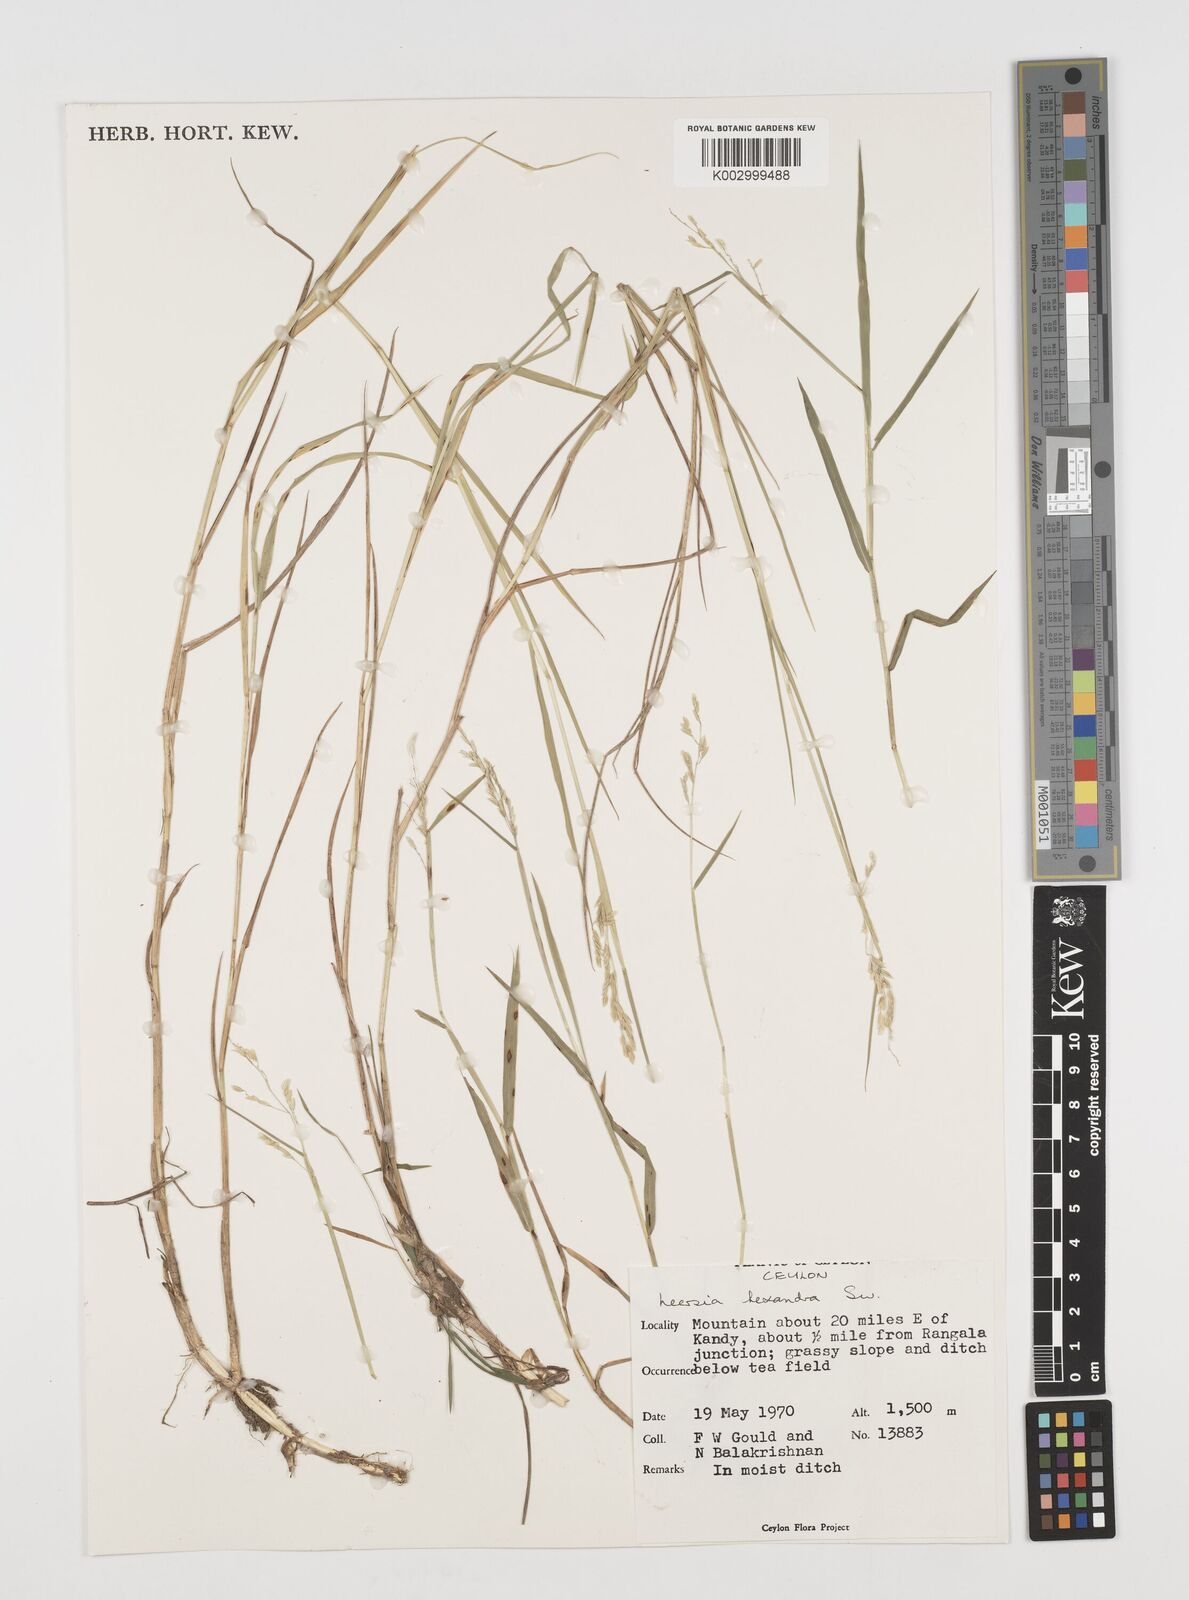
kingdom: Plantae
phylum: Tracheophyta
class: Liliopsida
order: Poales
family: Poaceae
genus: Leersia
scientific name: Leersia hexandra
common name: Southern cut grass
